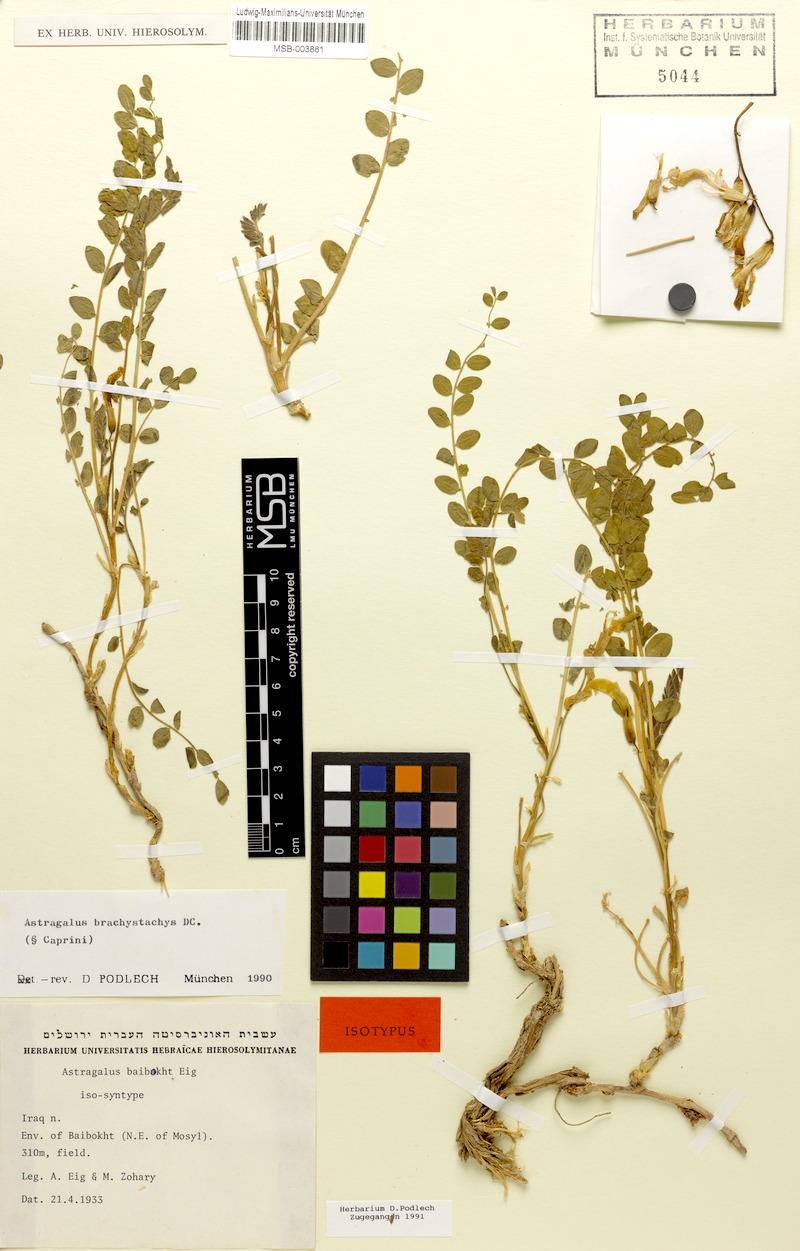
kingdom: Plantae
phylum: Tracheophyta
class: Magnoliopsida
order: Fabales
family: Fabaceae
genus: Astragalus
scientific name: Astragalus brachystachys
